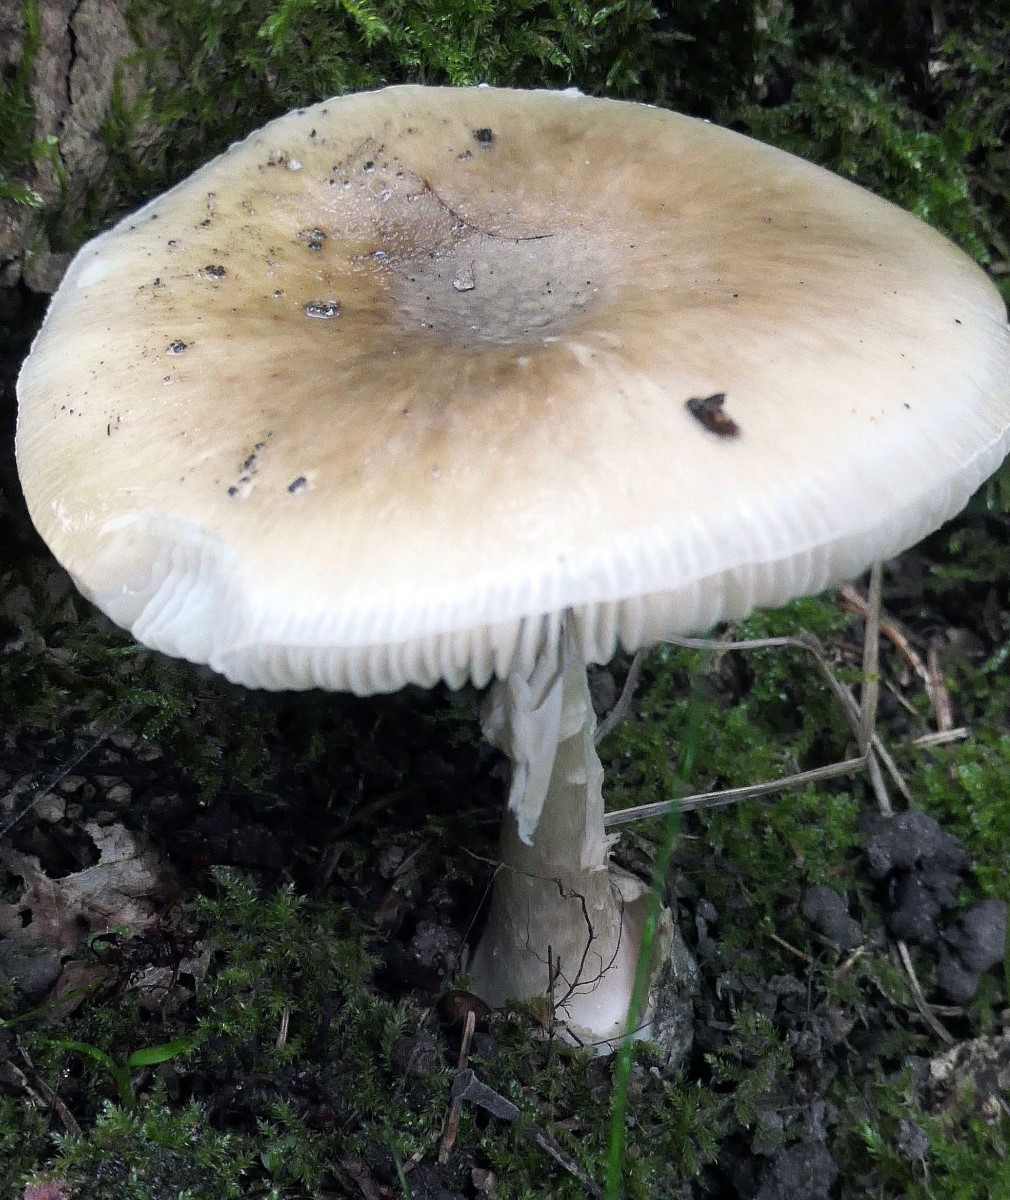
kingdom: Fungi
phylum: Basidiomycota
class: Agaricomycetes
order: Agaricales
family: Amanitaceae
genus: Amanita
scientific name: Amanita phalloides
